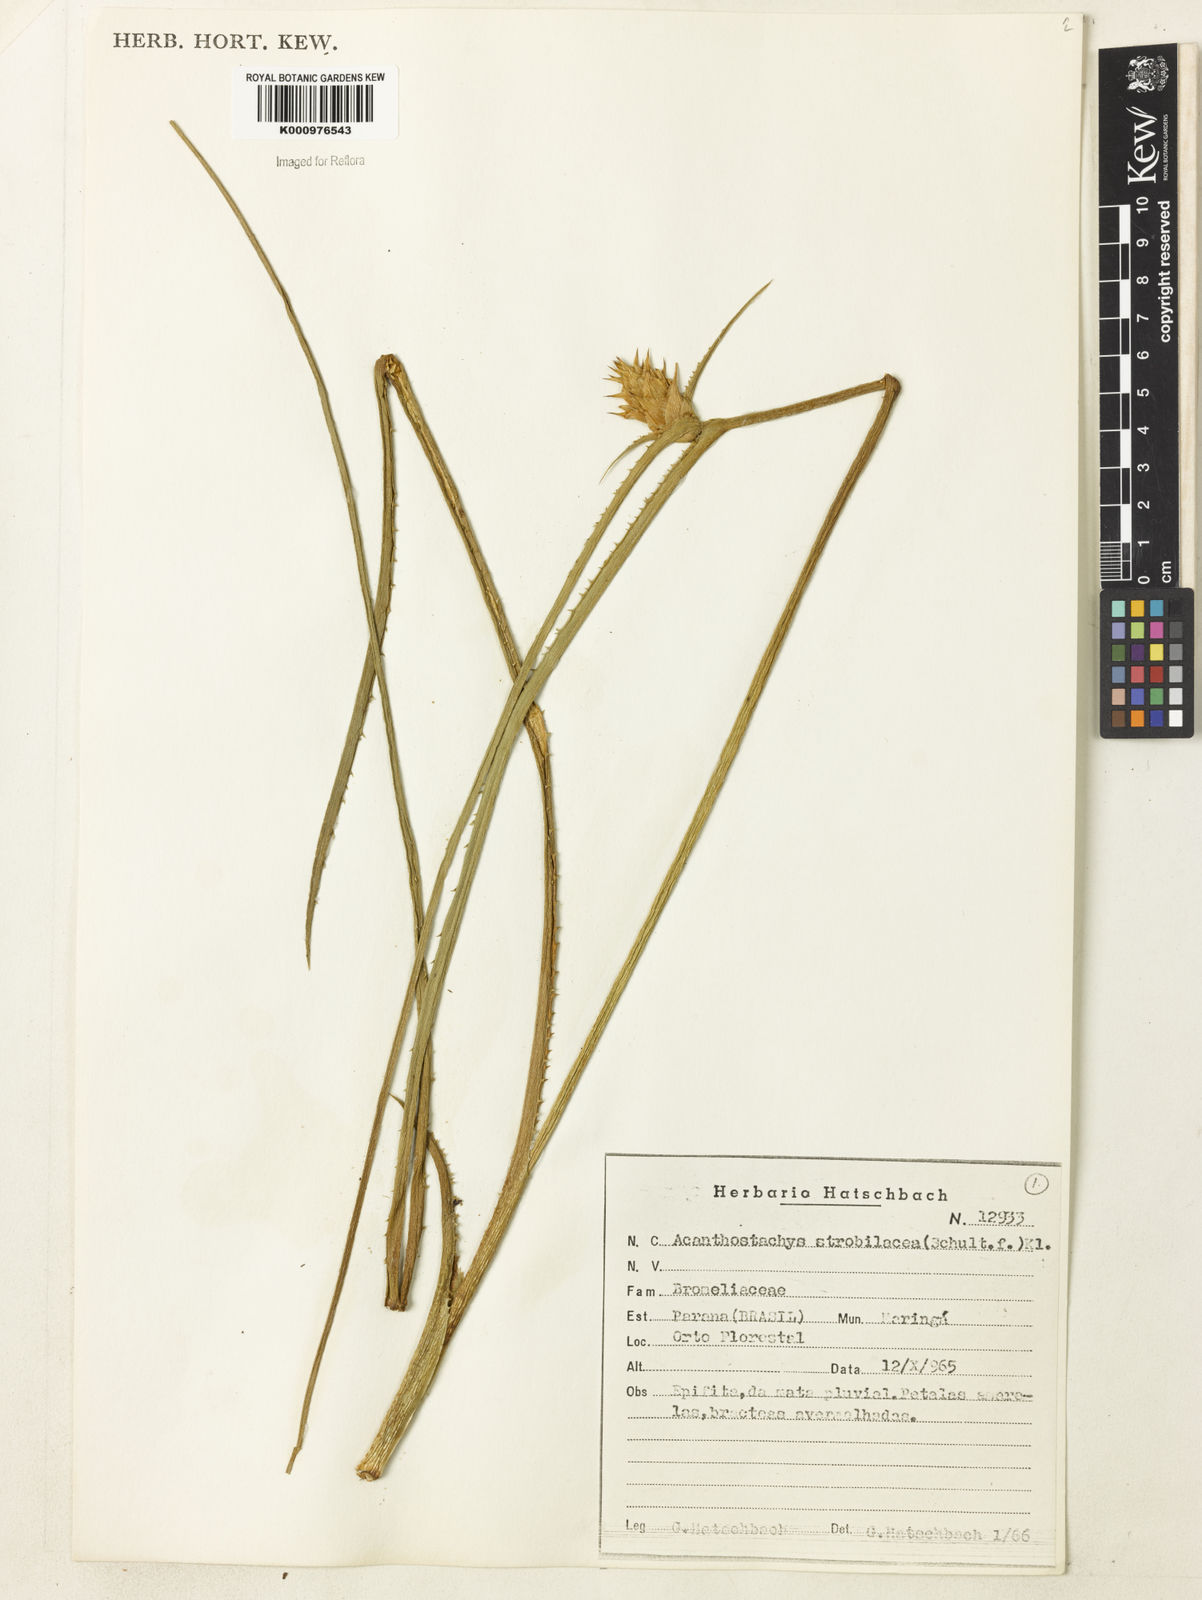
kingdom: Plantae
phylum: Tracheophyta
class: Liliopsida
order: Poales
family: Bromeliaceae
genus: Acanthostachys
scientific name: Acanthostachys strobilacea
